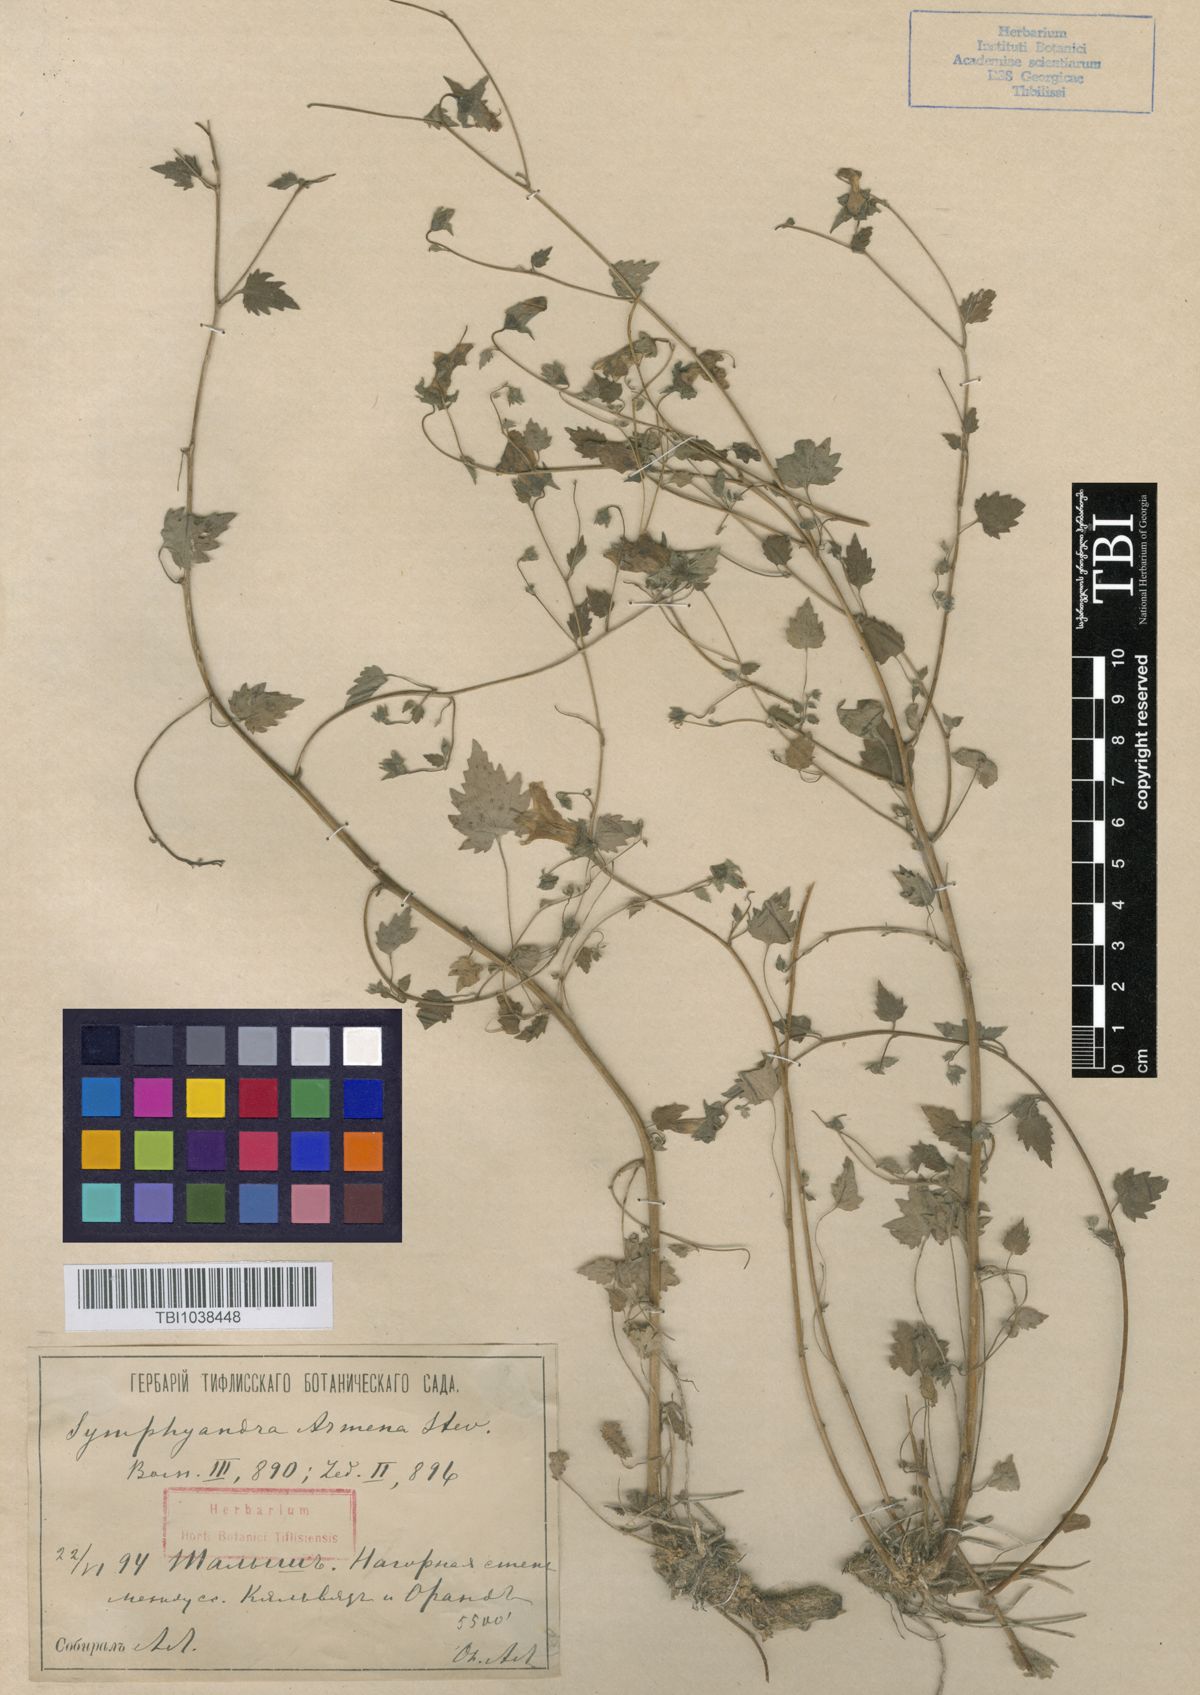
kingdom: Plantae
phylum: Tracheophyta
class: Magnoliopsida
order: Asterales
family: Campanulaceae
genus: Campanula
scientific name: Campanula armena
